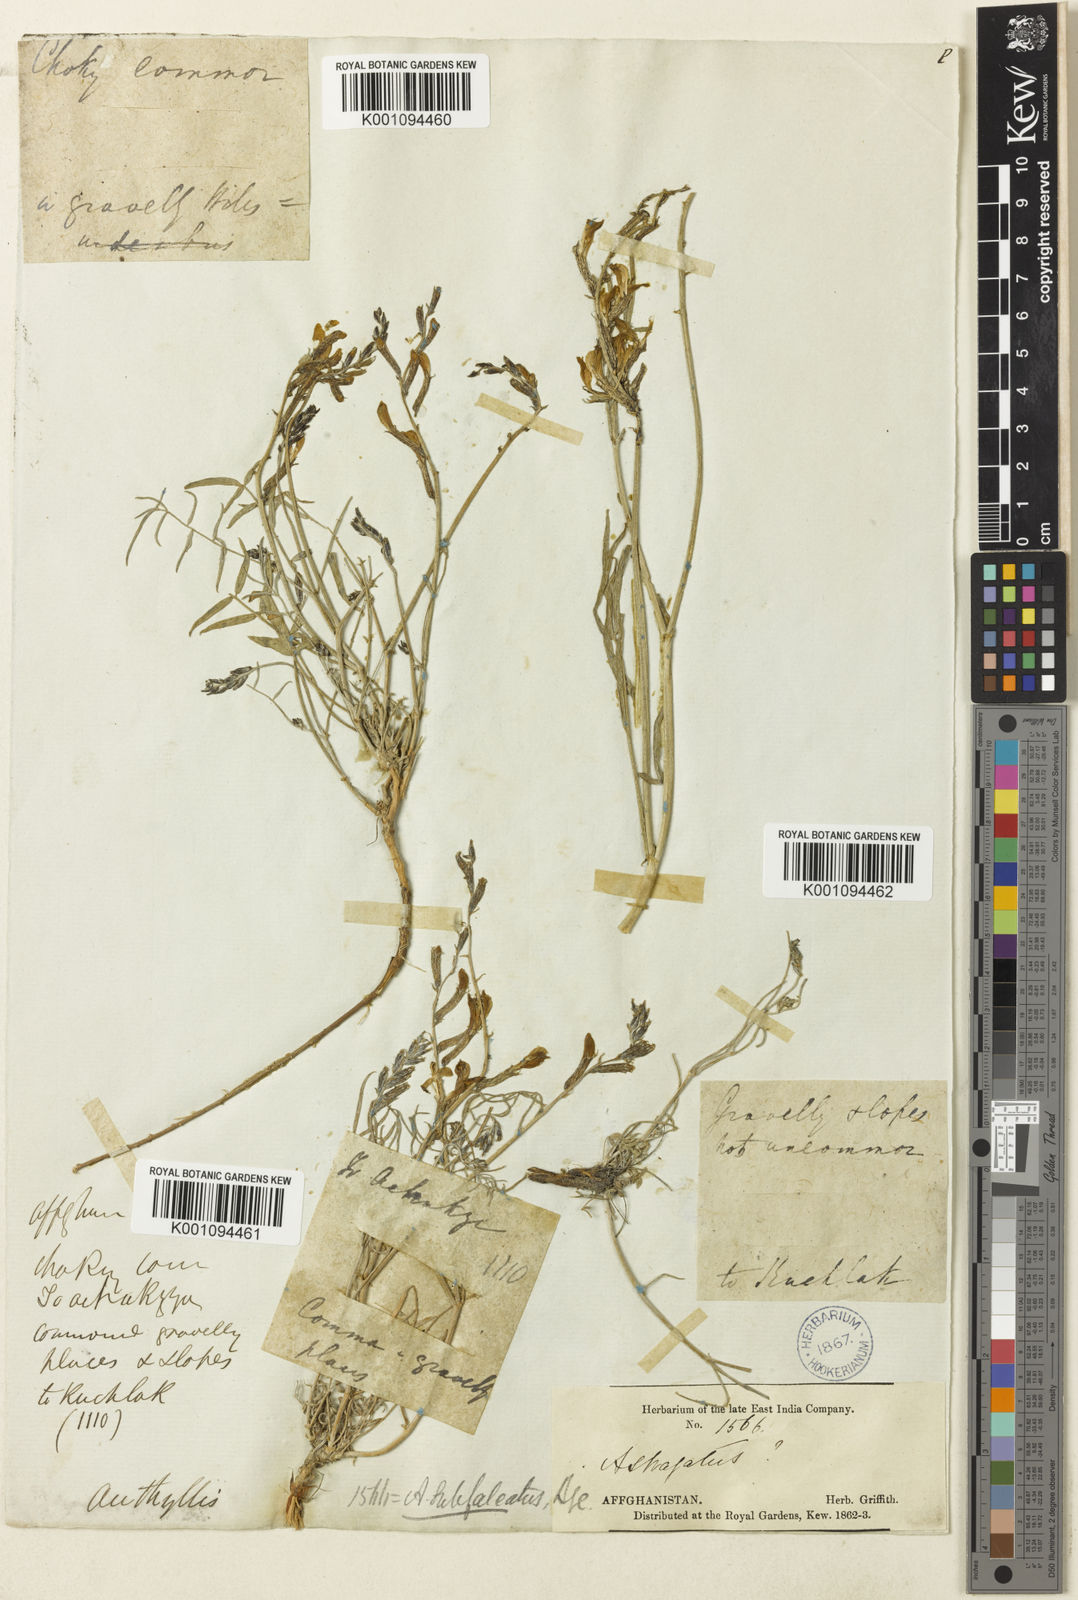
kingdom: Plantae
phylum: Tracheophyta
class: Magnoliopsida
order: Fabales
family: Fabaceae
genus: Astragalus
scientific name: Astragalus
